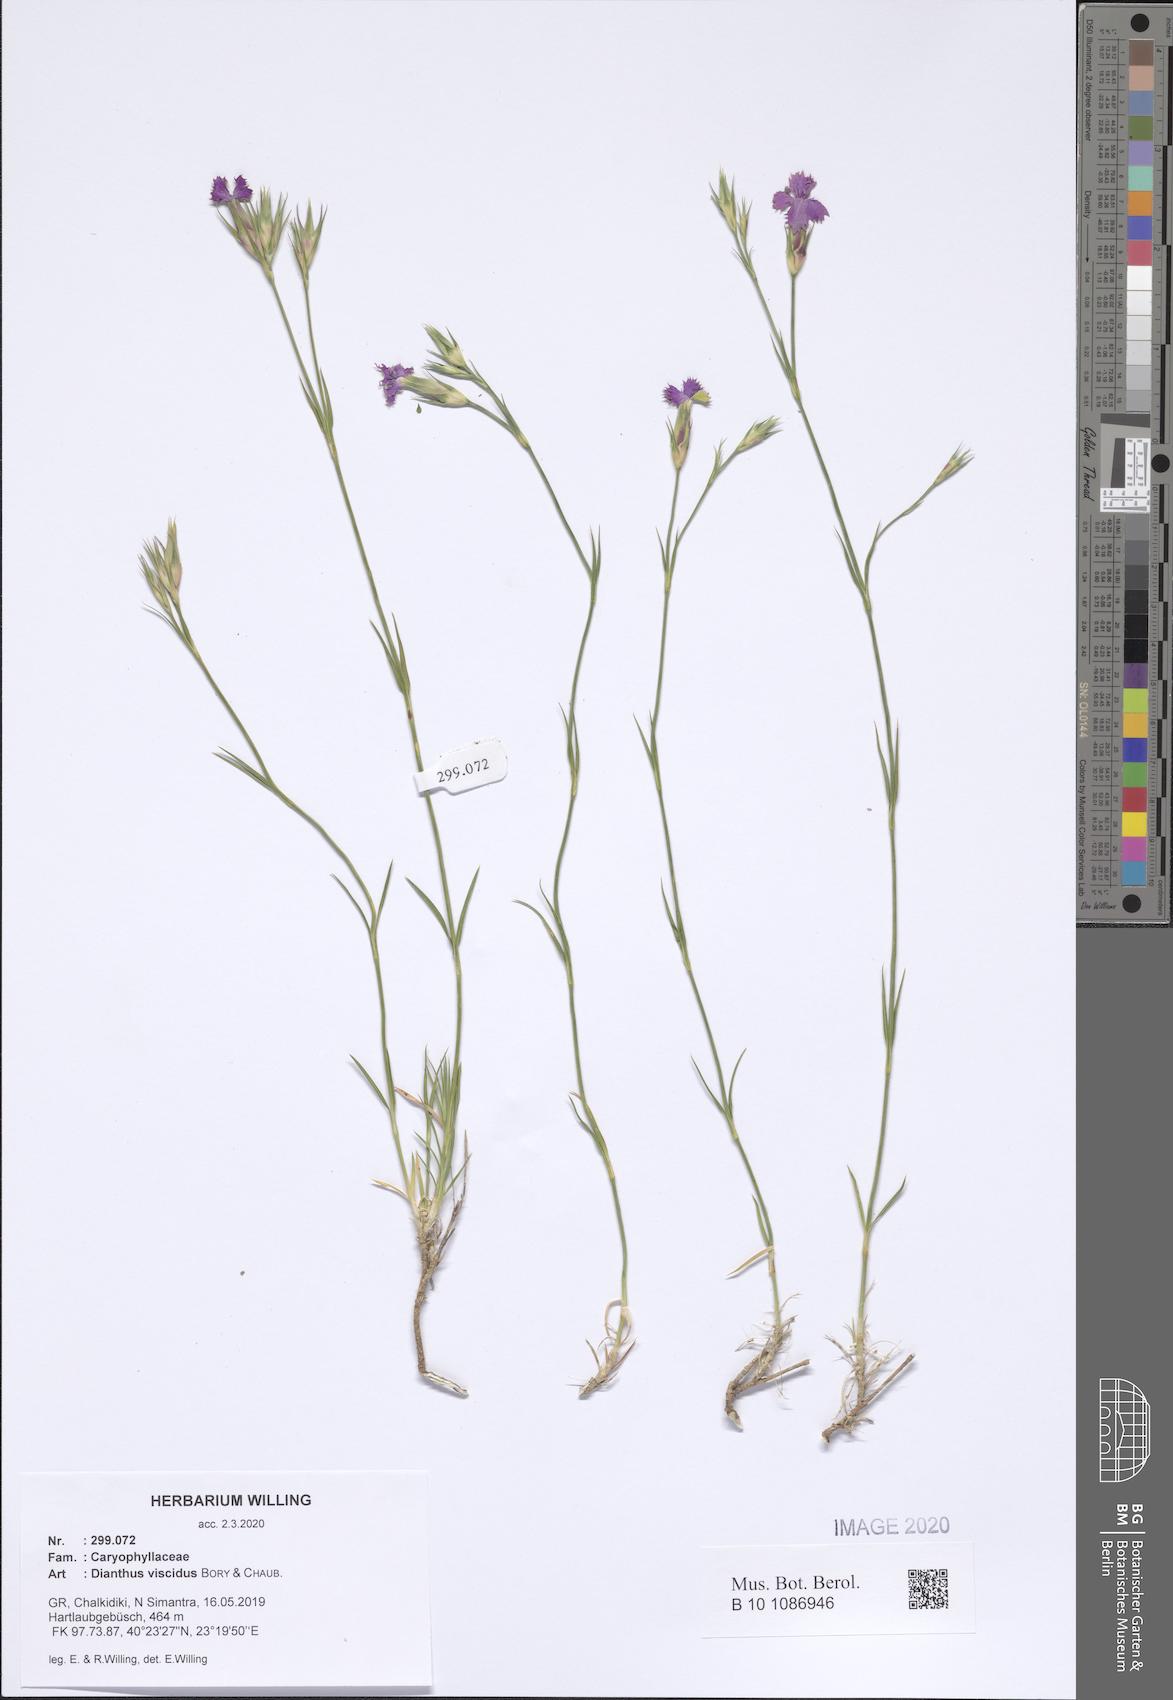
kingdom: Plantae
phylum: Tracheophyta
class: Magnoliopsida
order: Caryophyllales
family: Caryophyllaceae
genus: Dianthus
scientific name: Dianthus viscidus
